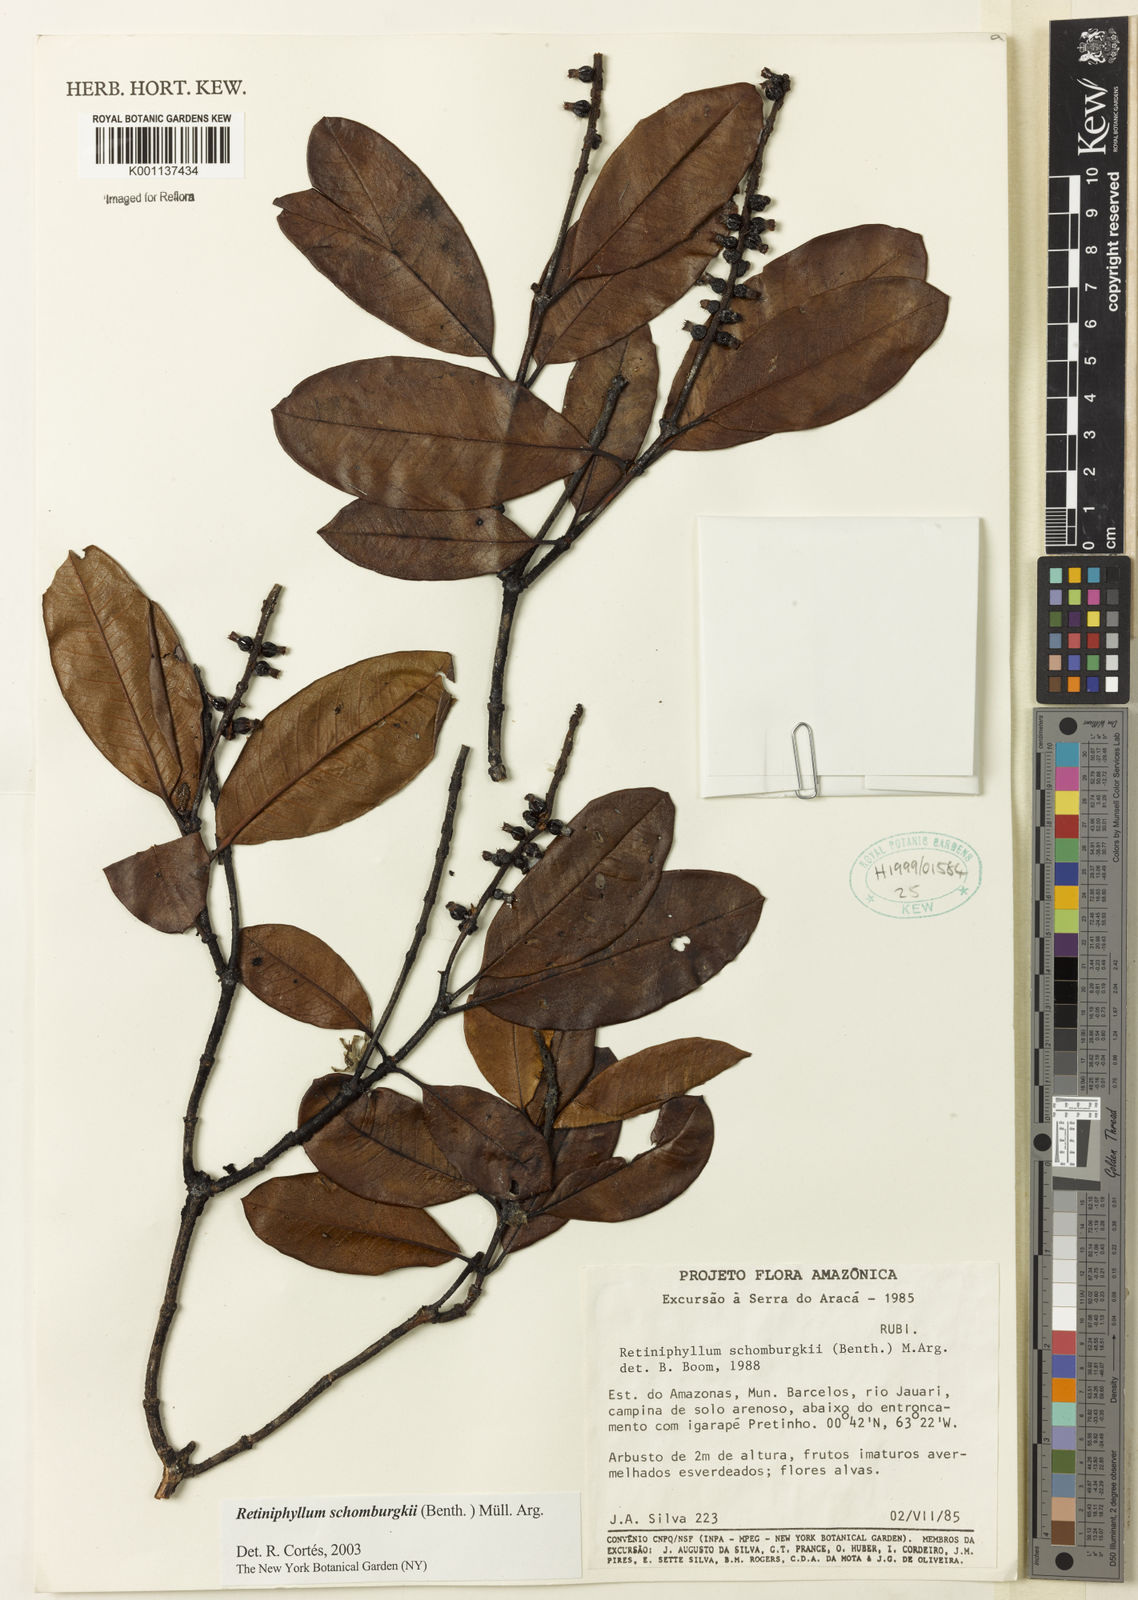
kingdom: Plantae
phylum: Tracheophyta
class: Magnoliopsida
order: Gentianales
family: Rubiaceae
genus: Retiniphyllum
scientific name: Retiniphyllum
